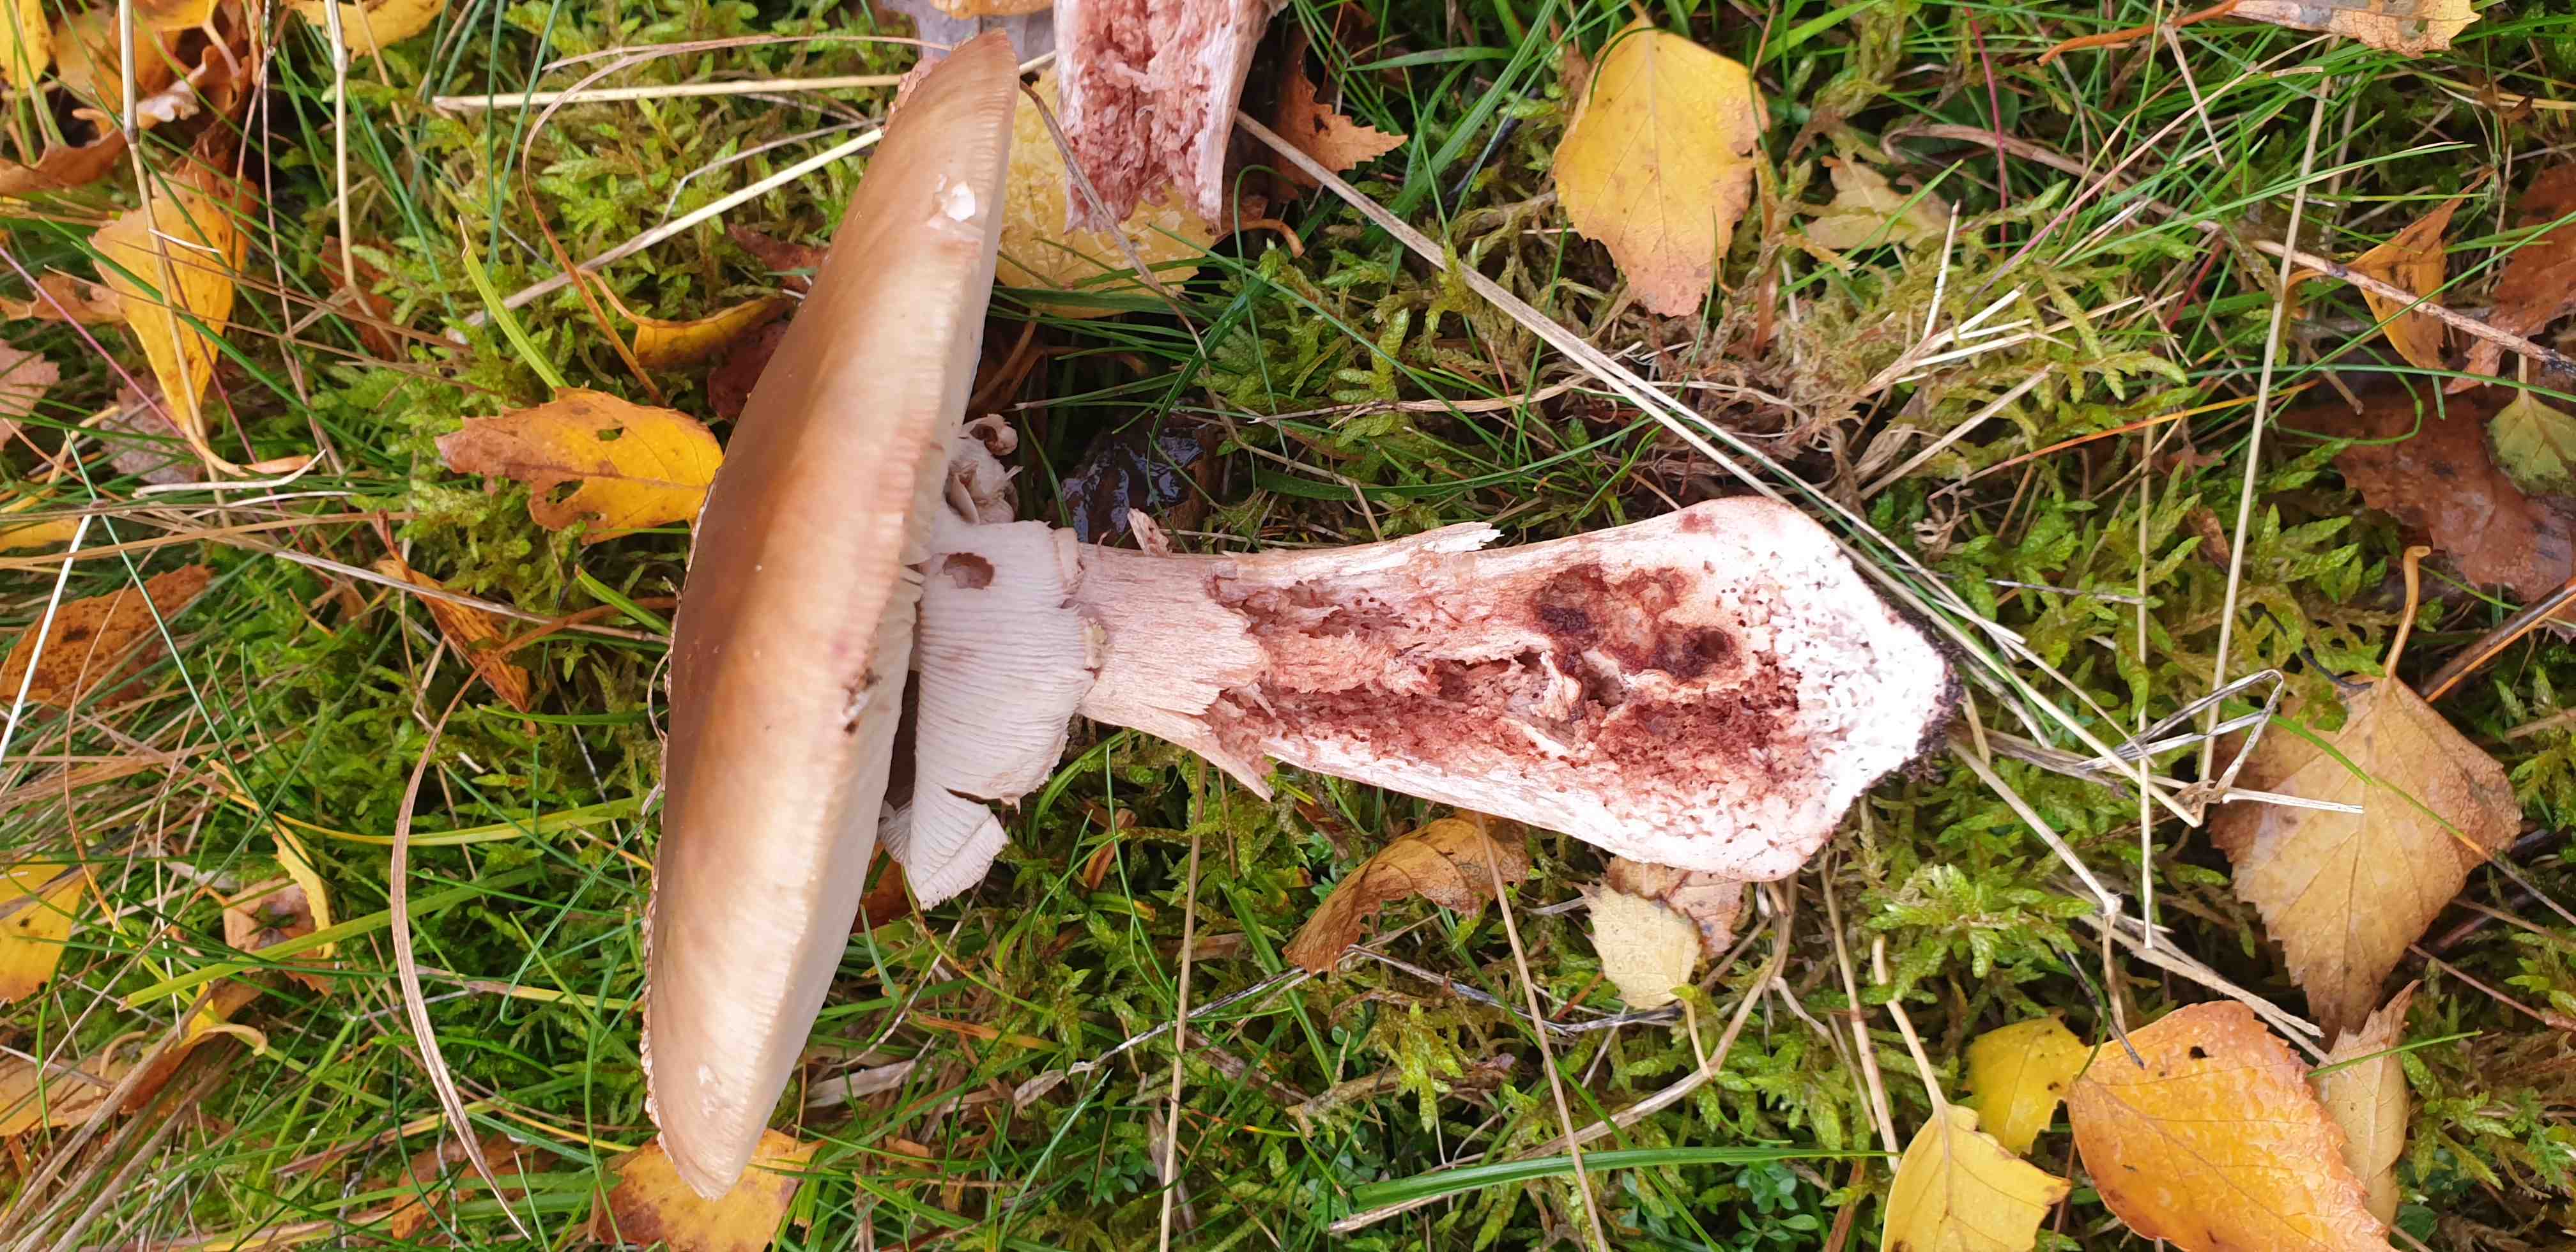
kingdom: Fungi
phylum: Basidiomycota
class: Agaricomycetes
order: Agaricales
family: Amanitaceae
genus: Amanita
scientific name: Amanita rubescens
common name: rødmende fluesvamp
